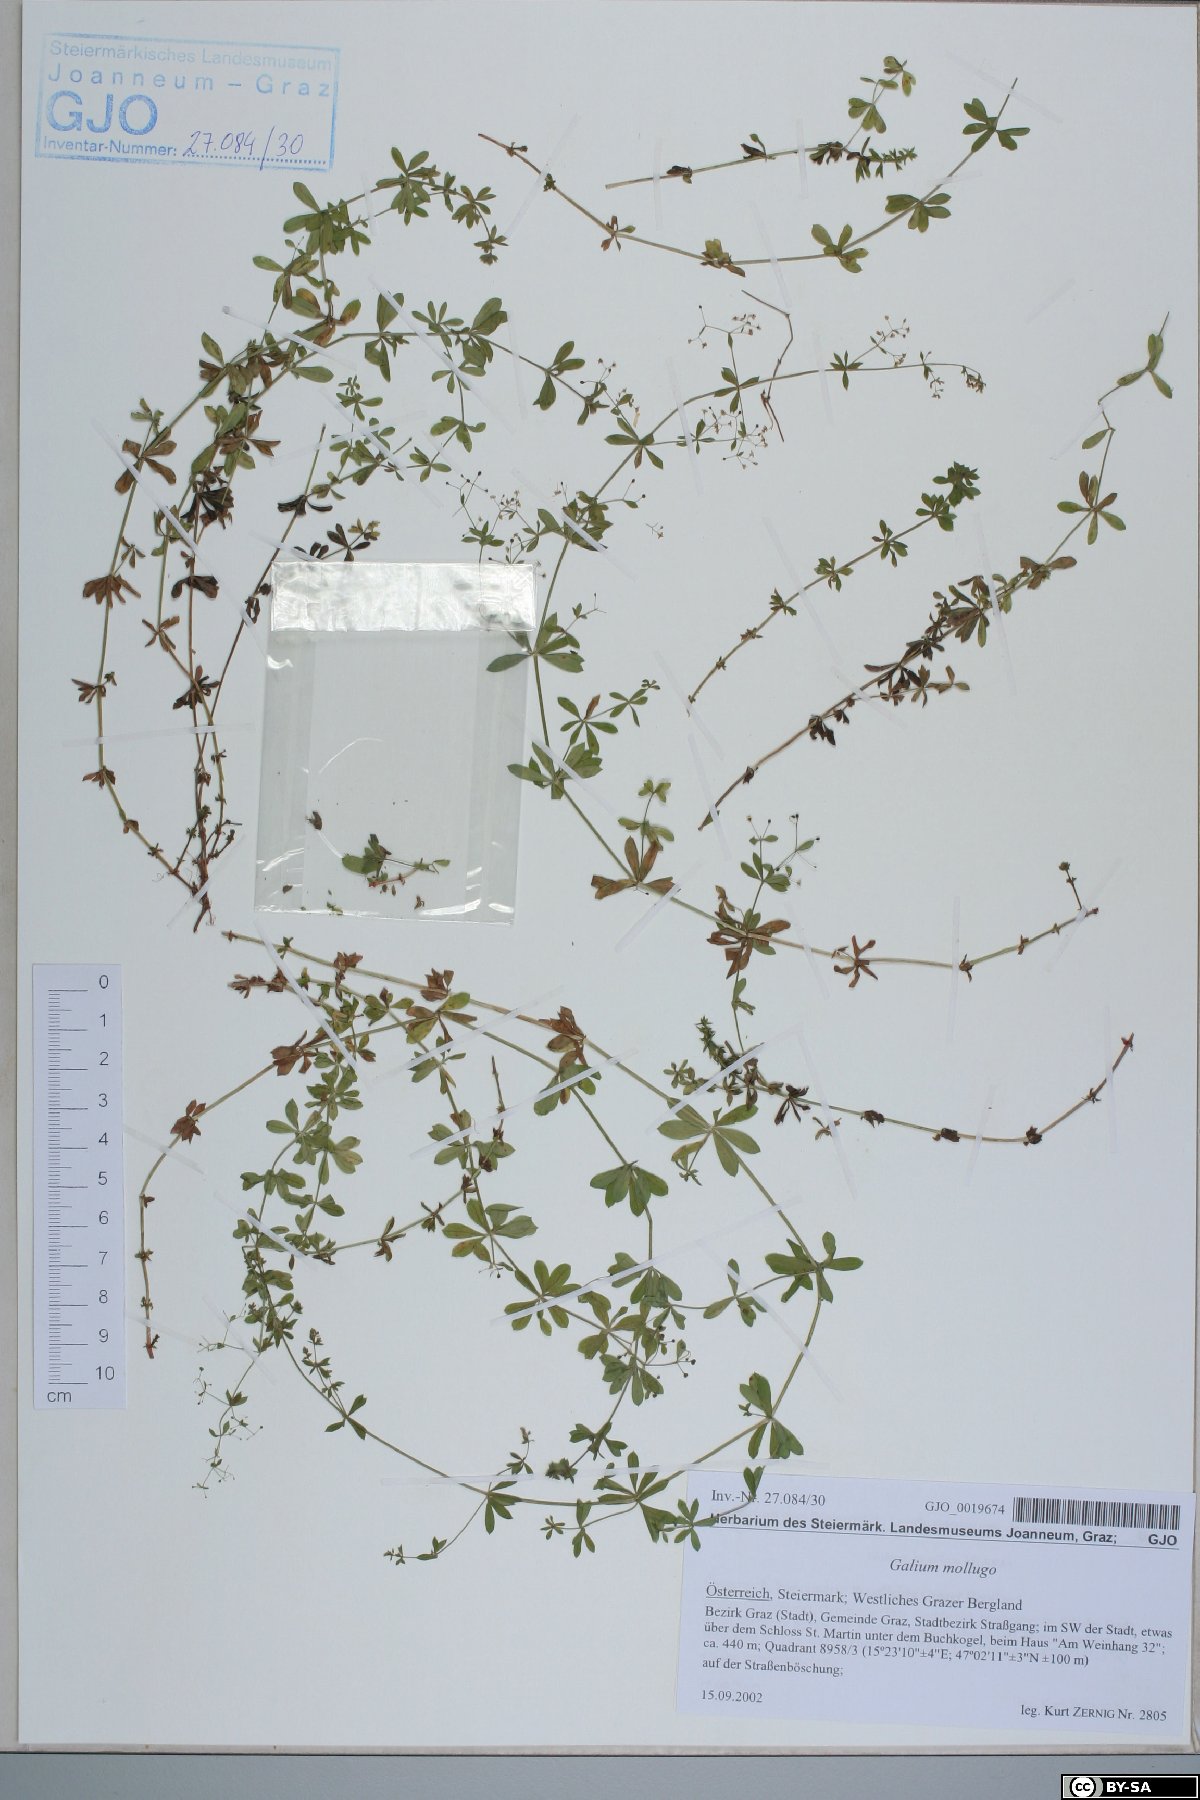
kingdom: Plantae
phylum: Tracheophyta
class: Magnoliopsida
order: Gentianales
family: Rubiaceae
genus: Galium
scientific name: Galium mollugo
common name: Hedge bedstraw
